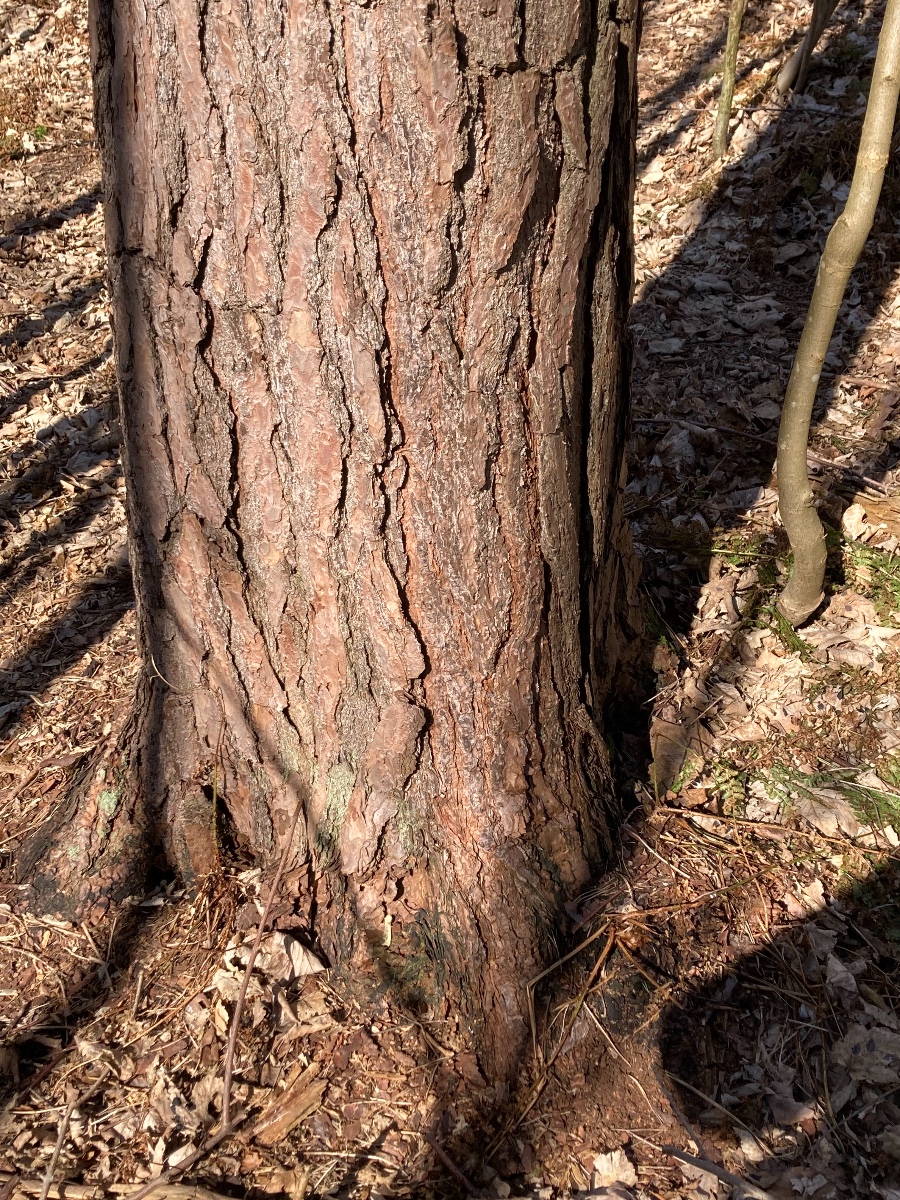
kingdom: Fungi
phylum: Ascomycota
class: Dothideomycetes
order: Mytilinidiales
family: Gloniaceae
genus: Glonium
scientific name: Glonium graphicum
